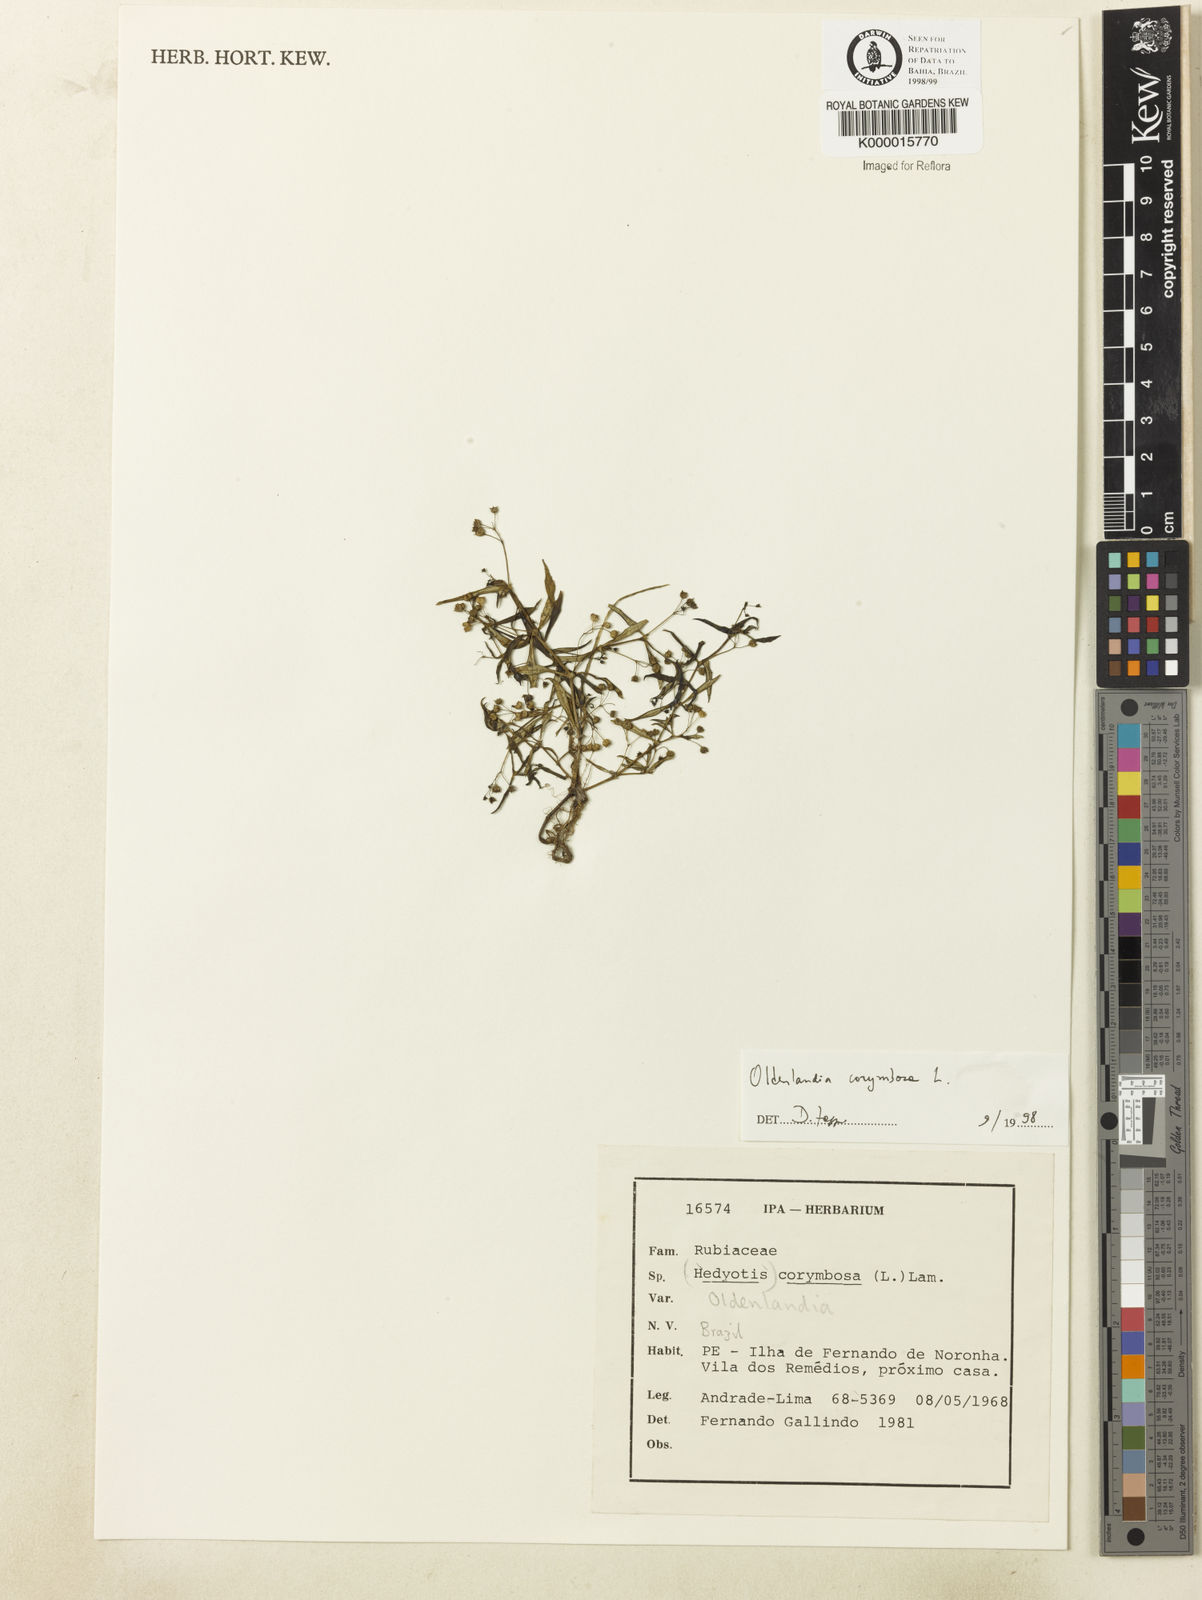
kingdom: Plantae
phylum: Tracheophyta
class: Magnoliopsida
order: Gentianales
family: Rubiaceae
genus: Oldenlandia
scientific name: Oldenlandia corymbosa
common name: Flat-top mille graines
